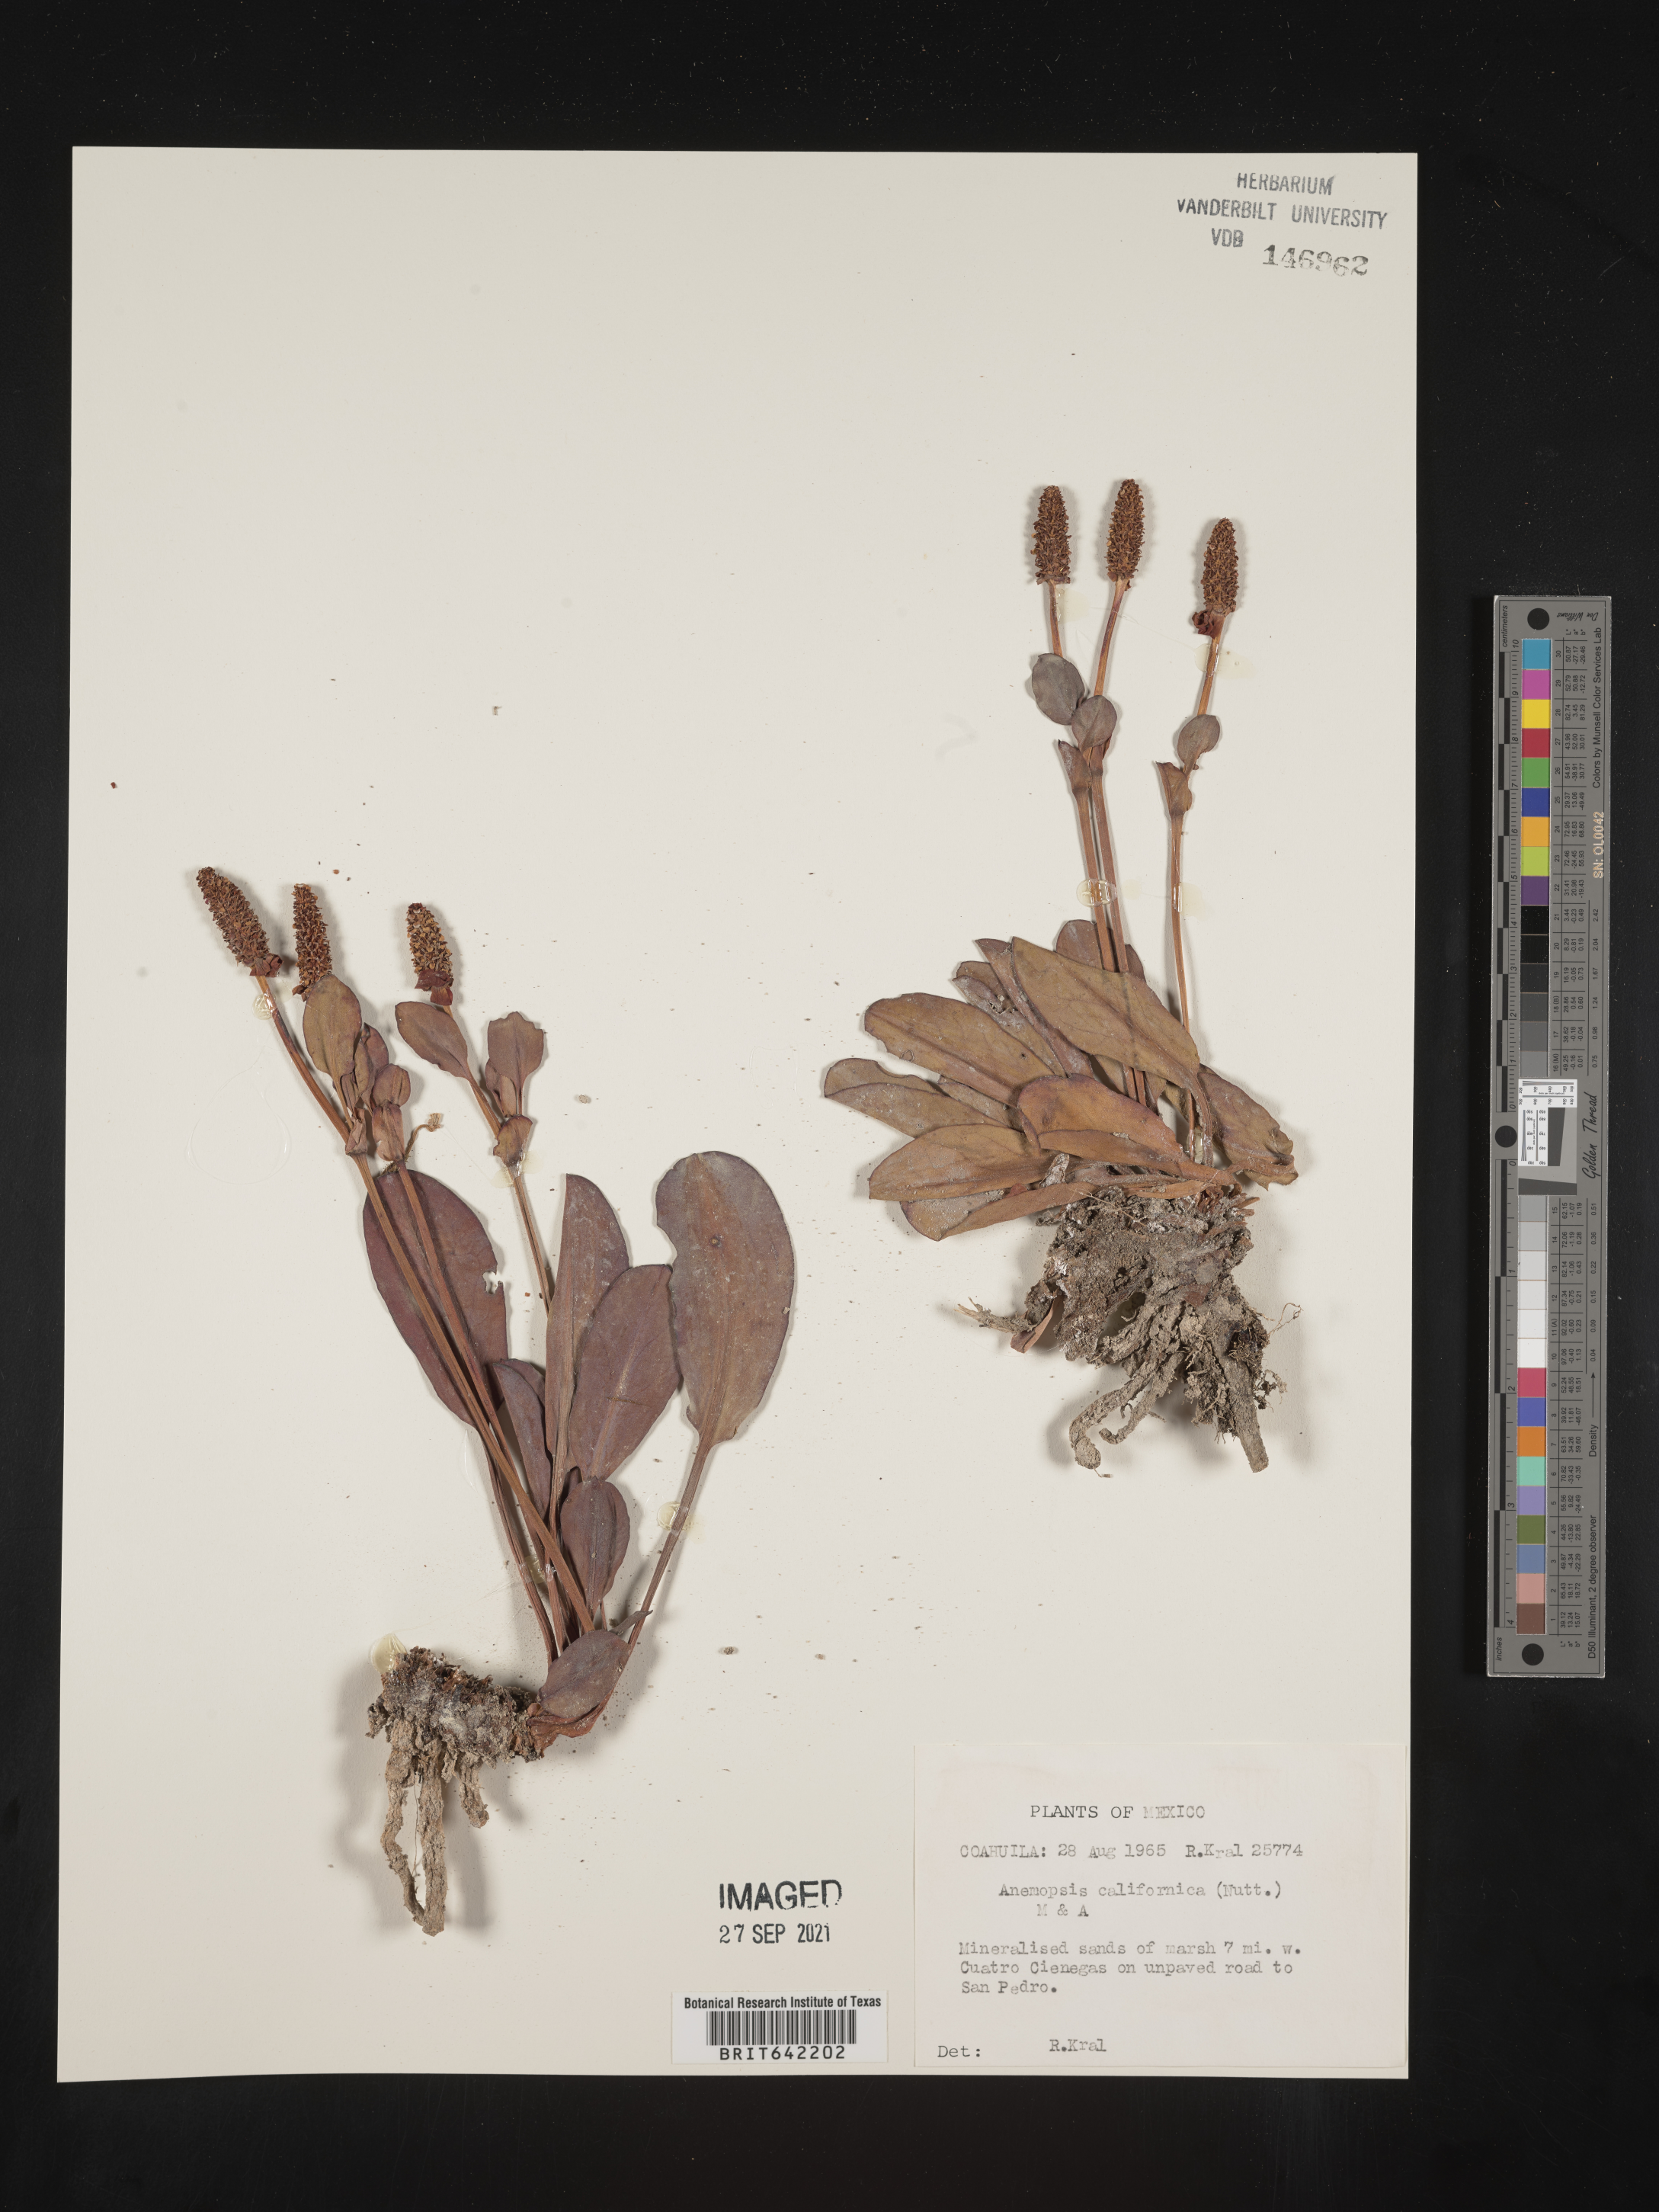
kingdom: Plantae
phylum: Tracheophyta
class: Magnoliopsida
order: Piperales
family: Saururaceae
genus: Anemopsis
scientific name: Anemopsis
